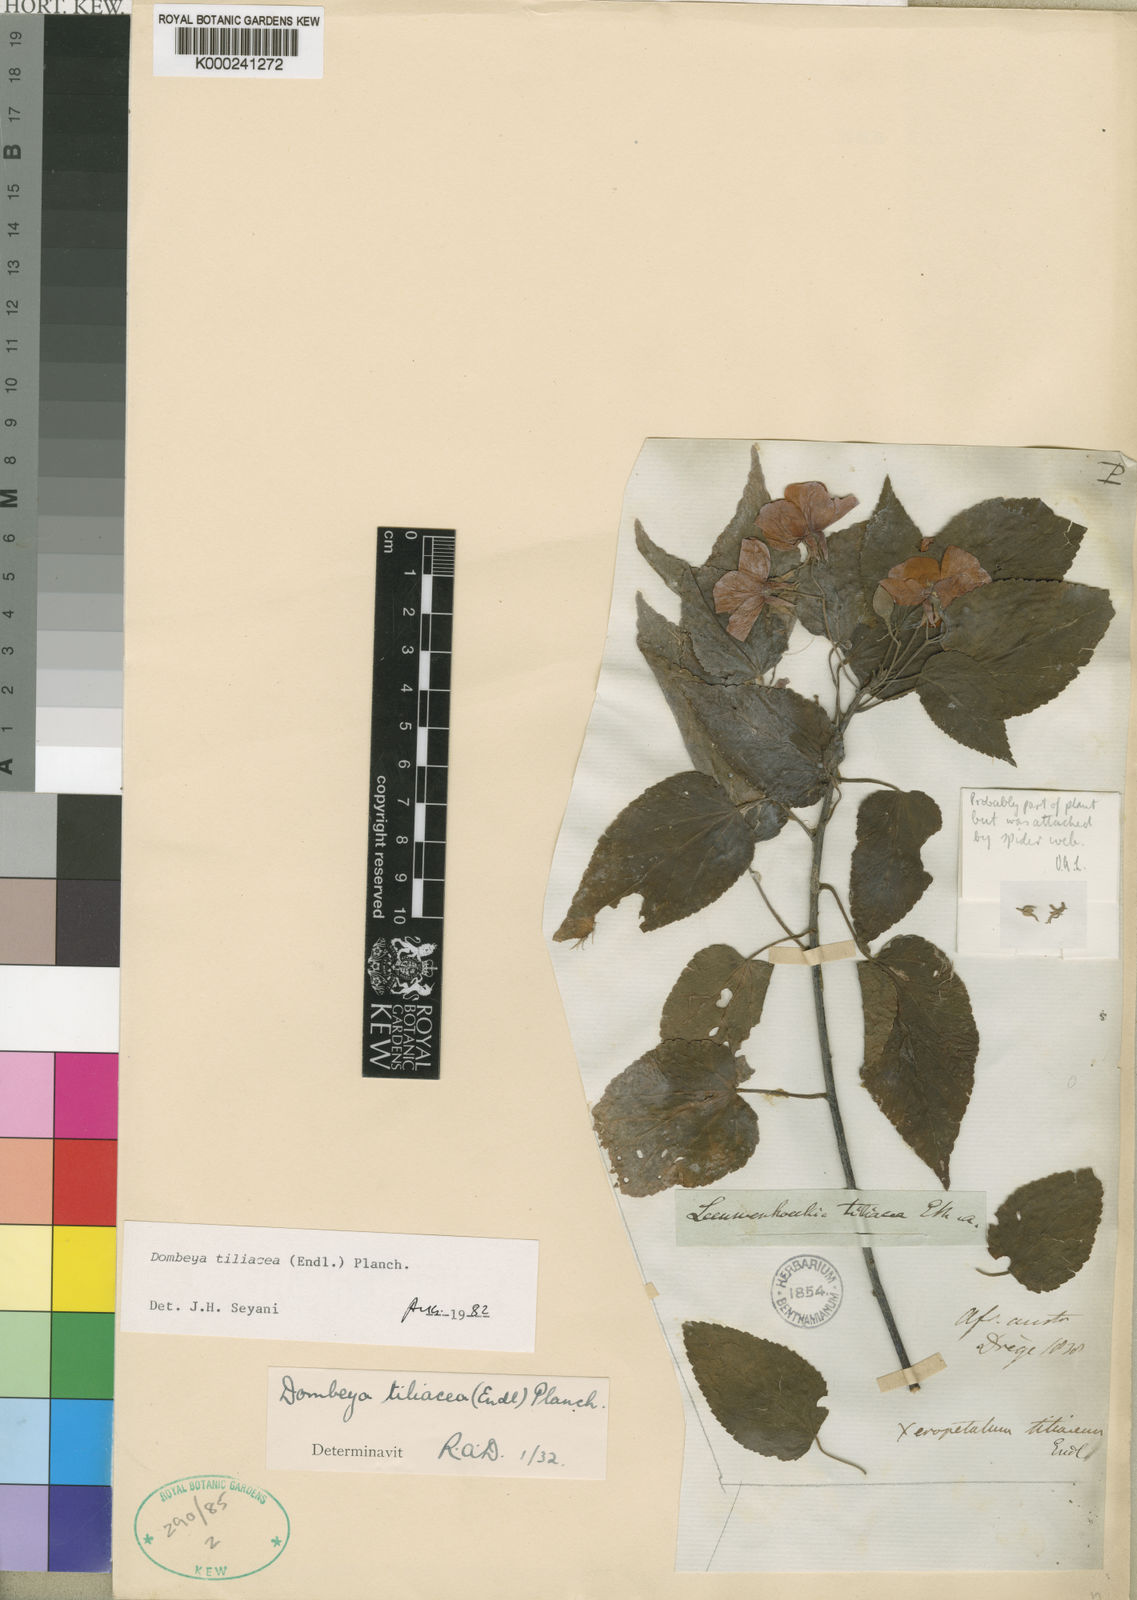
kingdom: Plantae
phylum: Tracheophyta
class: Magnoliopsida
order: Malvales
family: Malvaceae
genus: Dombeya
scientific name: Dombeya tiliacea
